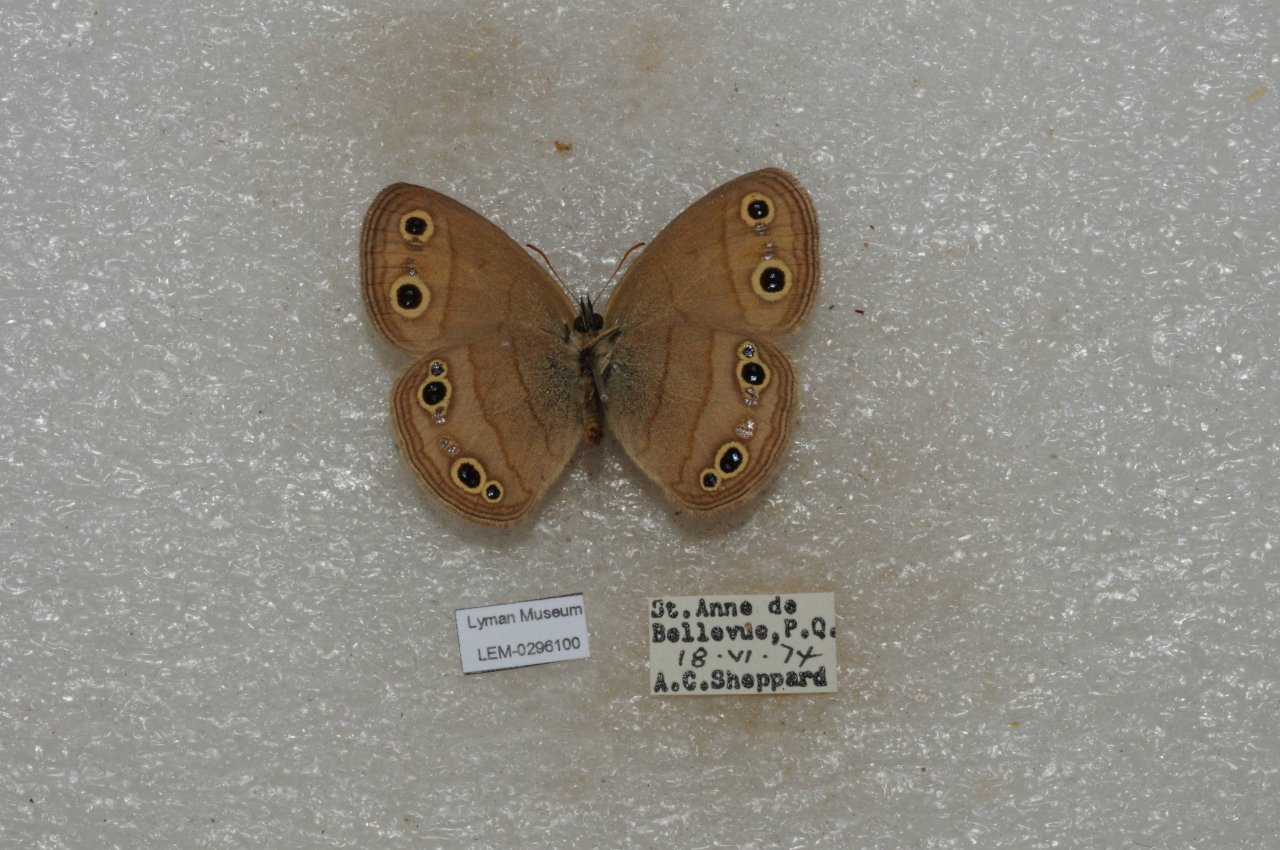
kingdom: Animalia
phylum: Arthropoda
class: Insecta
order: Lepidoptera
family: Nymphalidae
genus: Euptychia
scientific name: Euptychia cymela
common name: Little Wood Satyr
